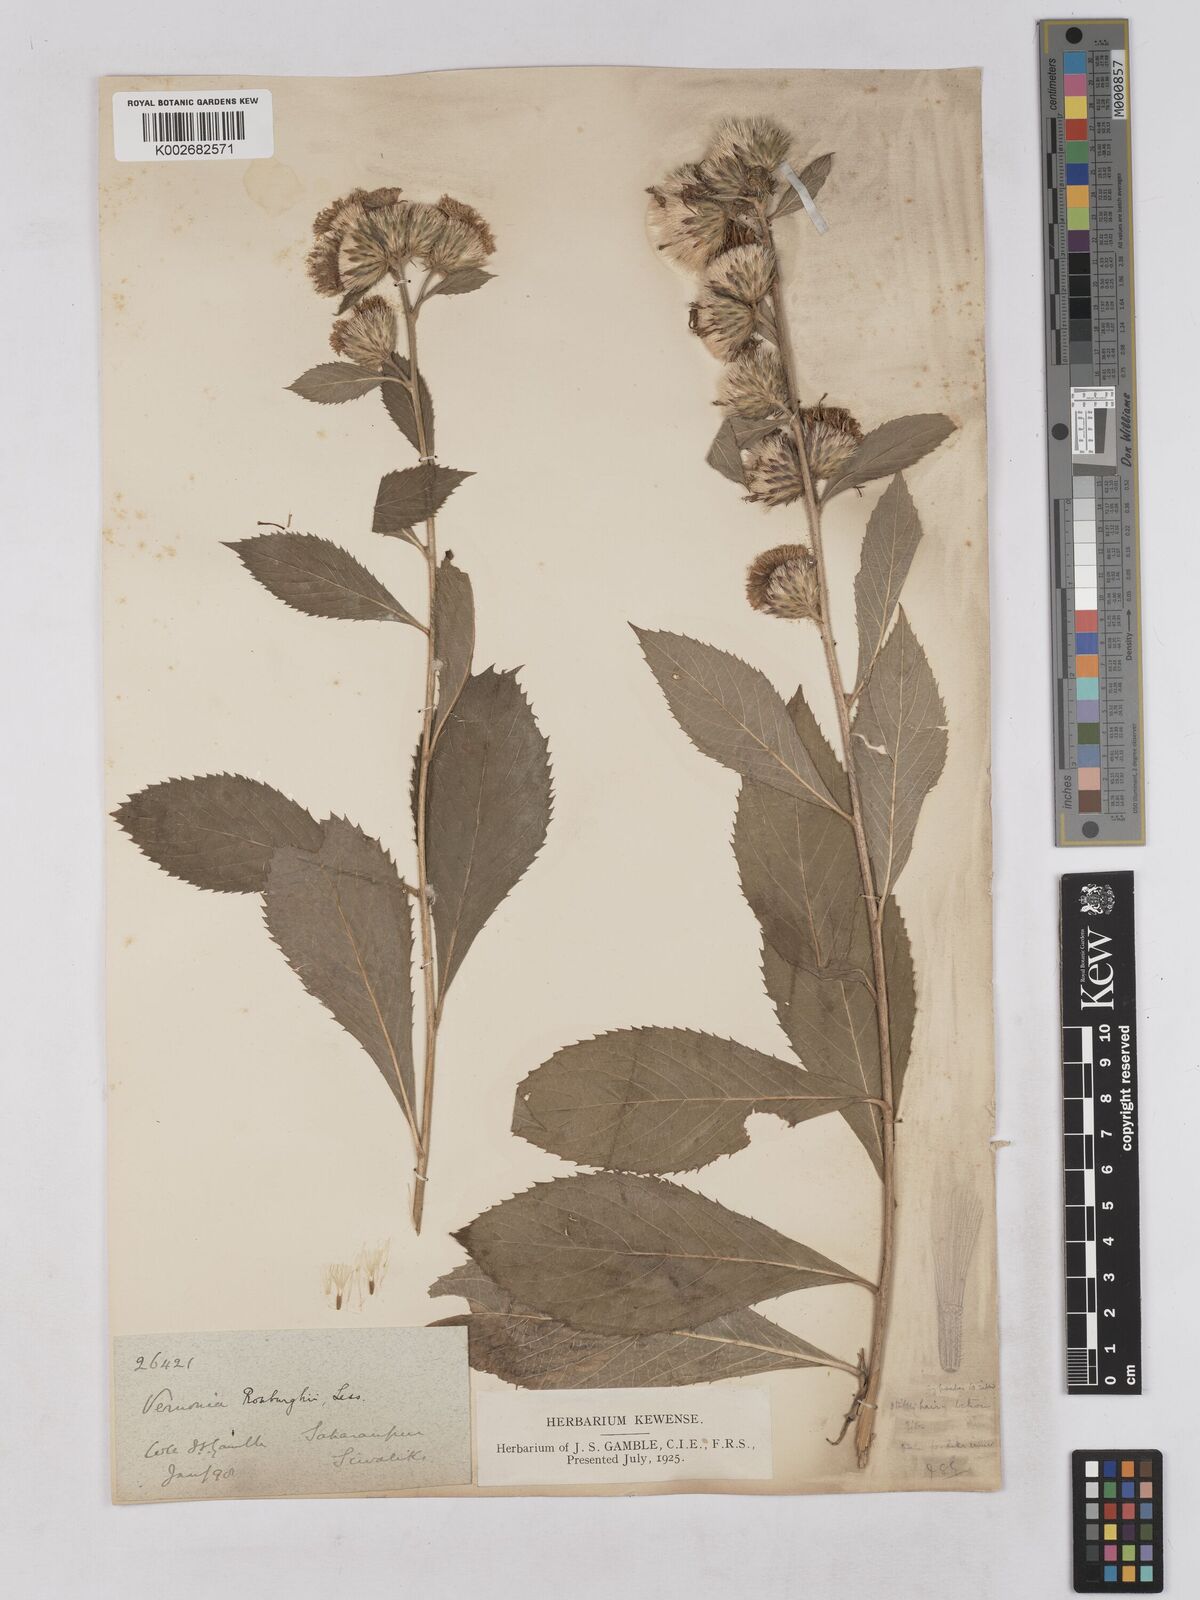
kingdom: Plantae
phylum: Tracheophyta
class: Magnoliopsida
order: Asterales
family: Asteraceae
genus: Acilepis
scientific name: Acilepis aspera
